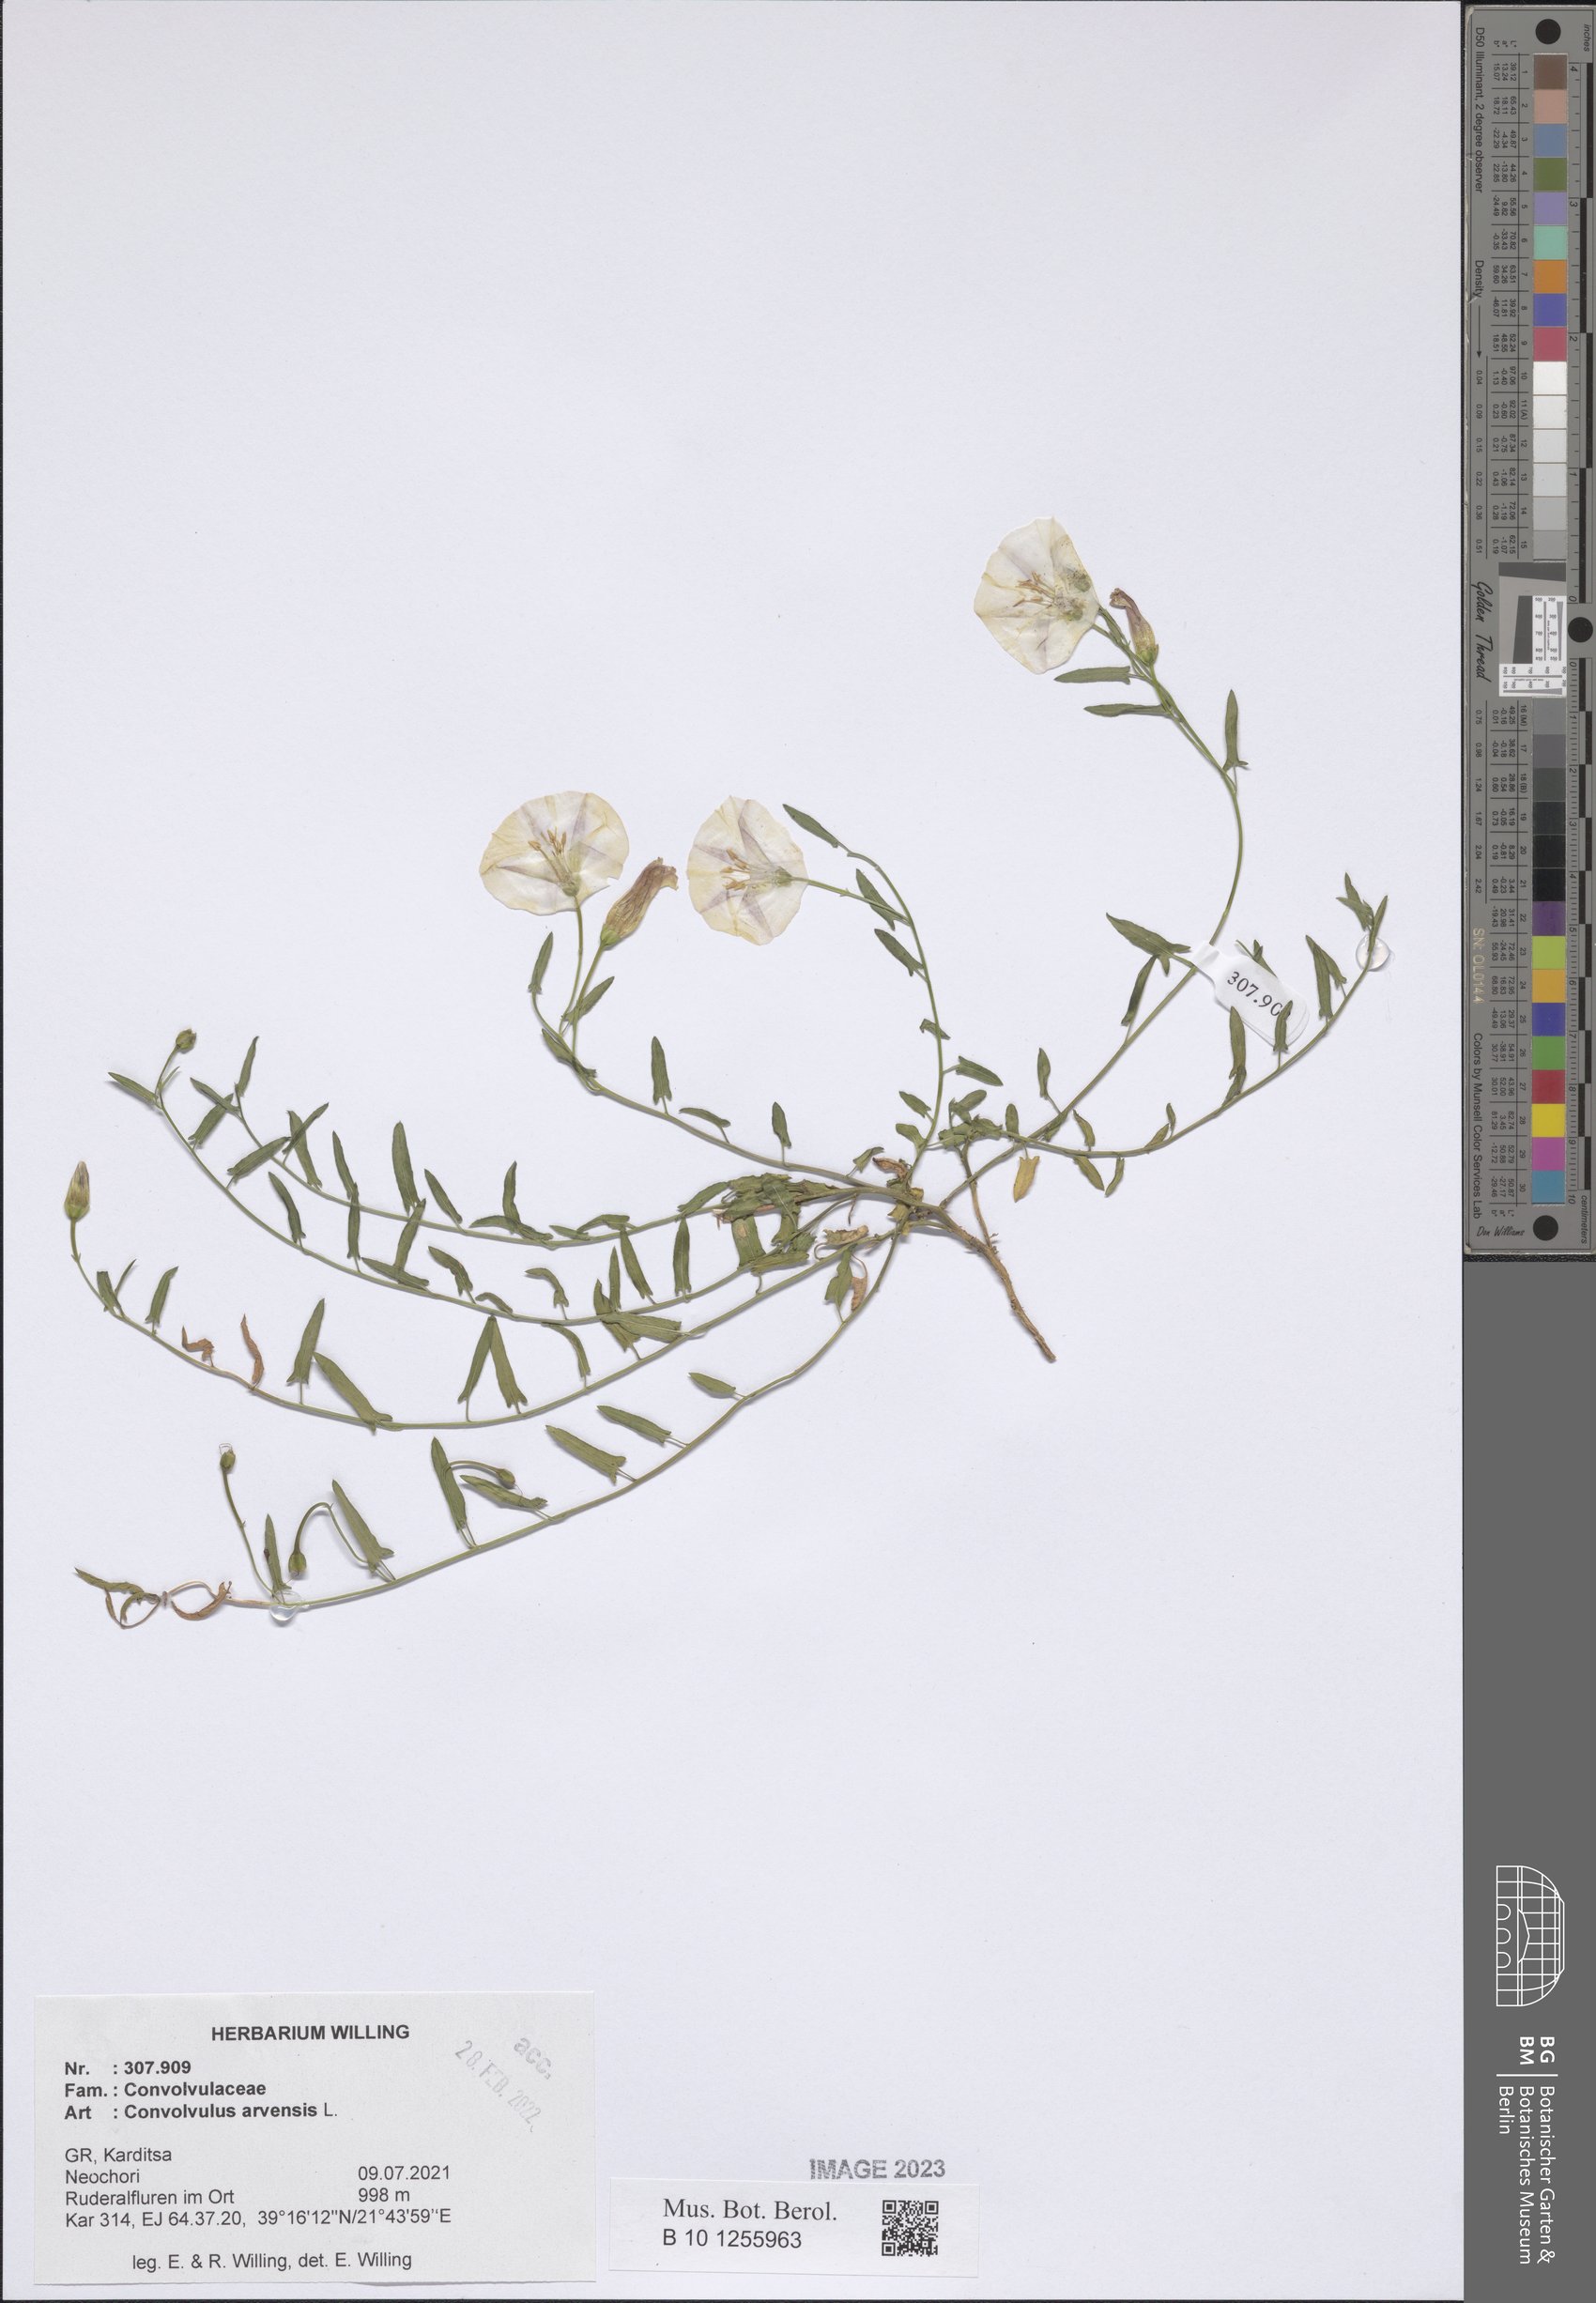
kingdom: Plantae
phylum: Tracheophyta
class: Magnoliopsida
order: Solanales
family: Convolvulaceae
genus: Convolvulus
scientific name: Convolvulus arvensis
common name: Field bindweed
